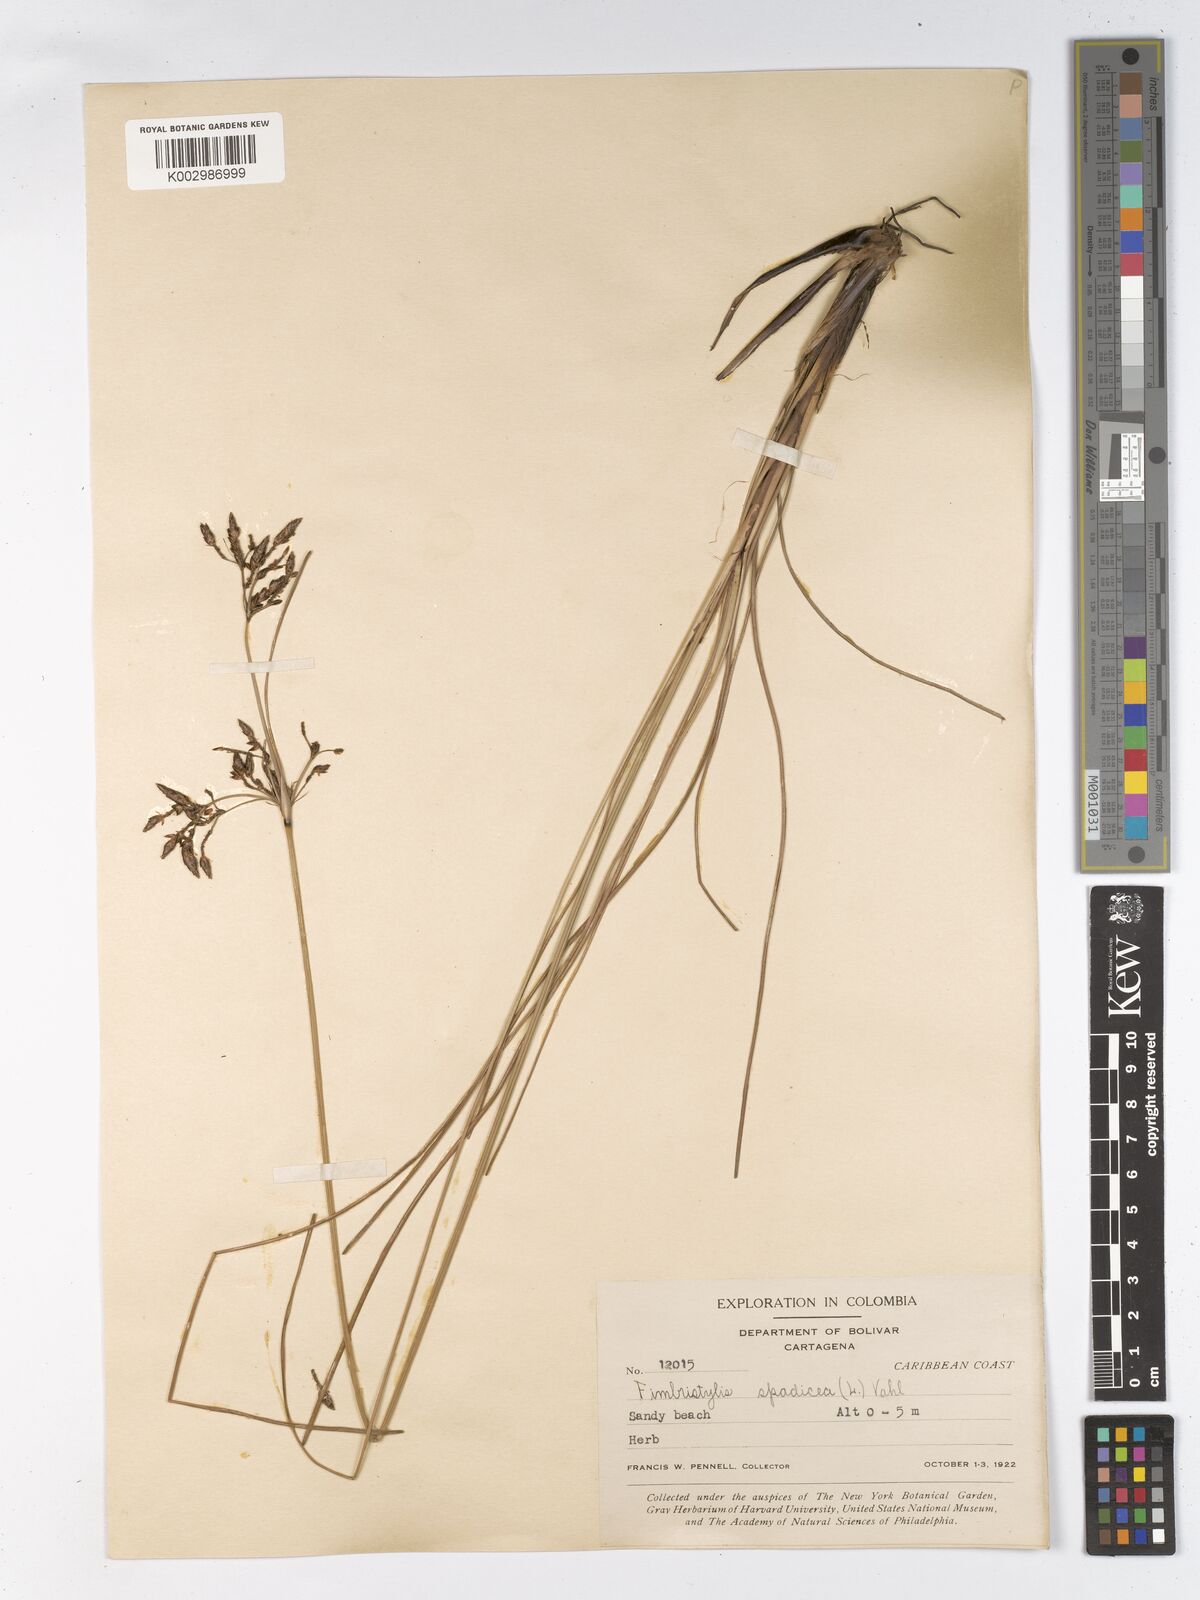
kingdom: Plantae
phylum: Tracheophyta
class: Liliopsida
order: Poales
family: Cyperaceae
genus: Fimbristylis
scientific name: Fimbristylis spadicea
